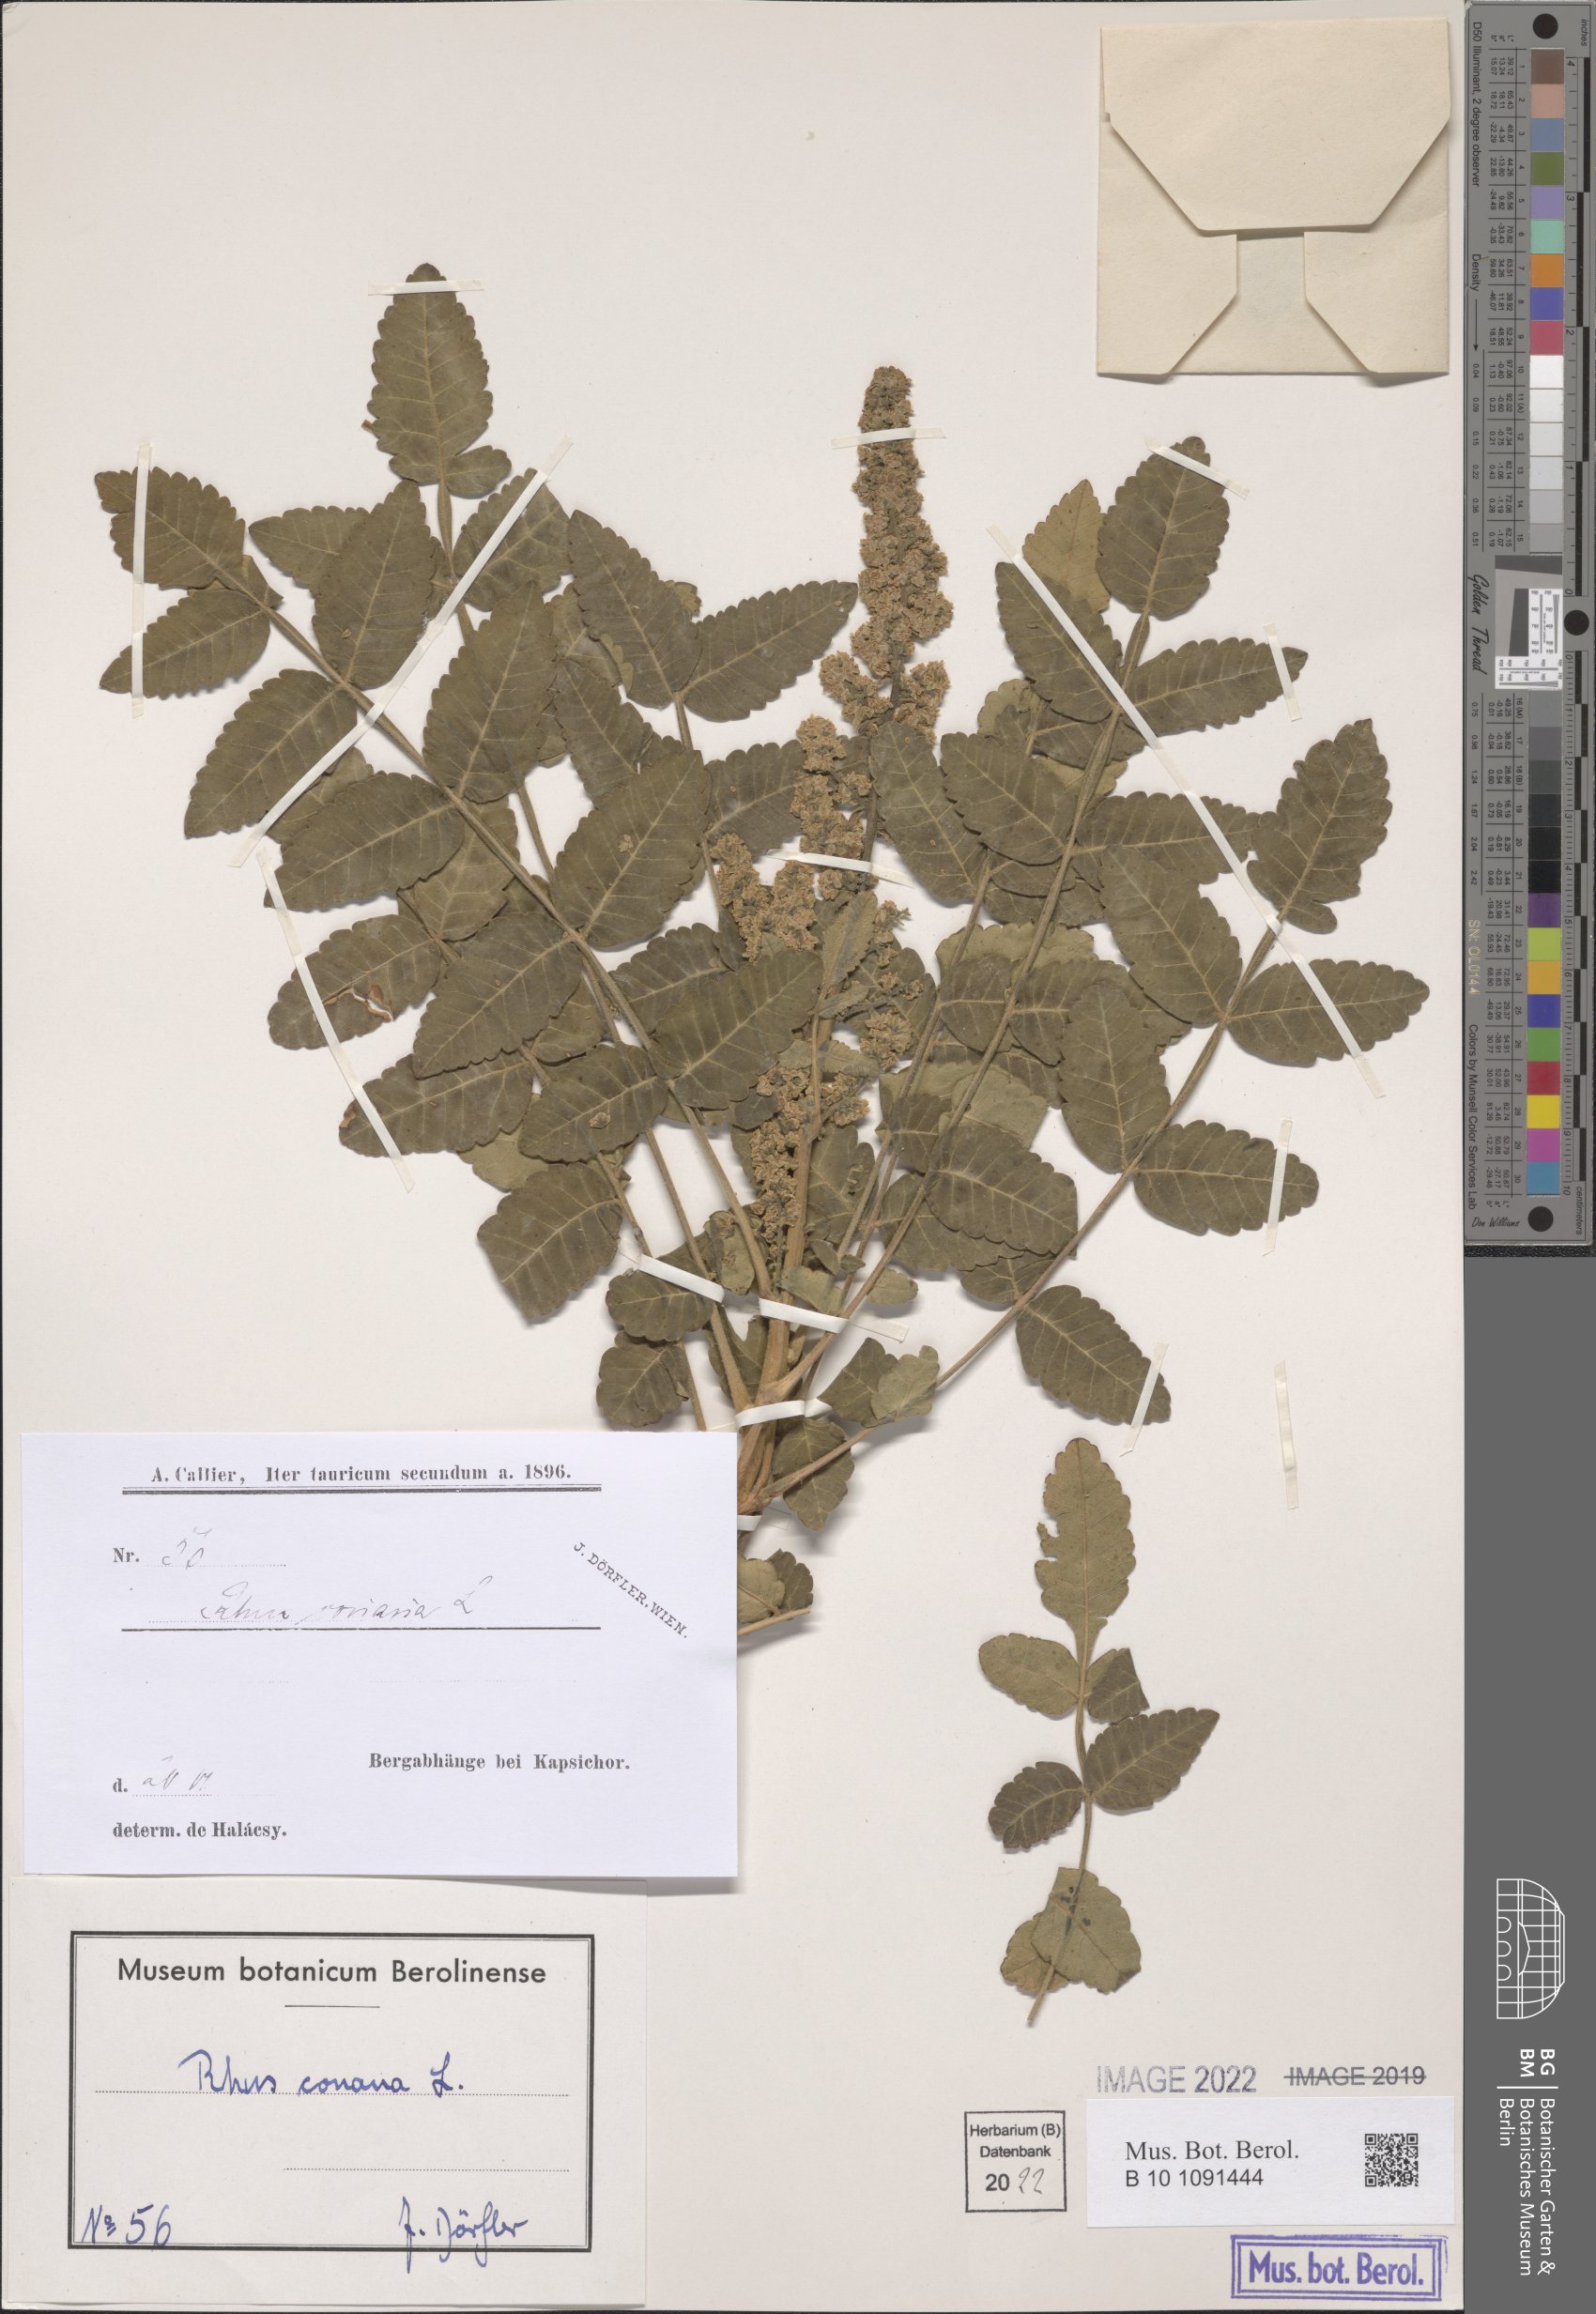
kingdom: Plantae
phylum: Tracheophyta
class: Magnoliopsida
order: Sapindales
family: Anacardiaceae
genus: Rhus
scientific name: Rhus coriaria
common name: Tanner's sumach
